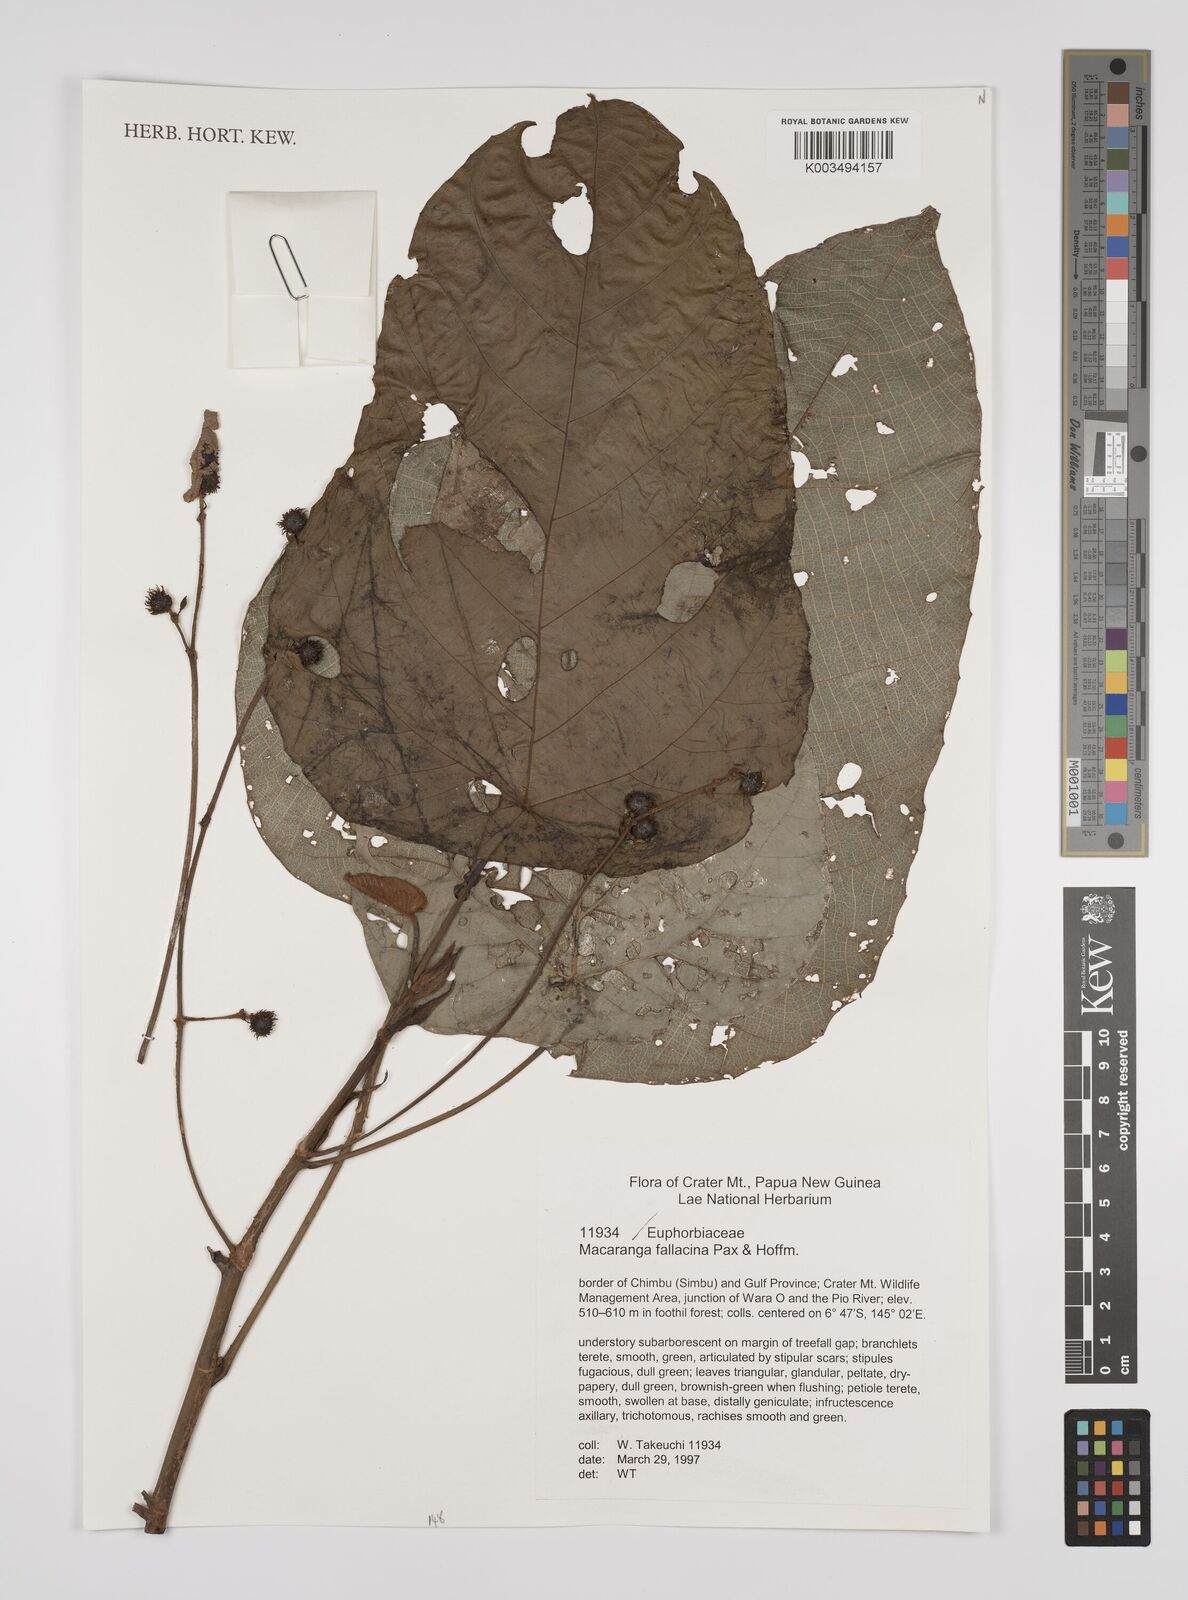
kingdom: Plantae
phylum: Tracheophyta
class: Magnoliopsida
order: Malpighiales
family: Euphorbiaceae
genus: Macaranga
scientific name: Macaranga fallacina
